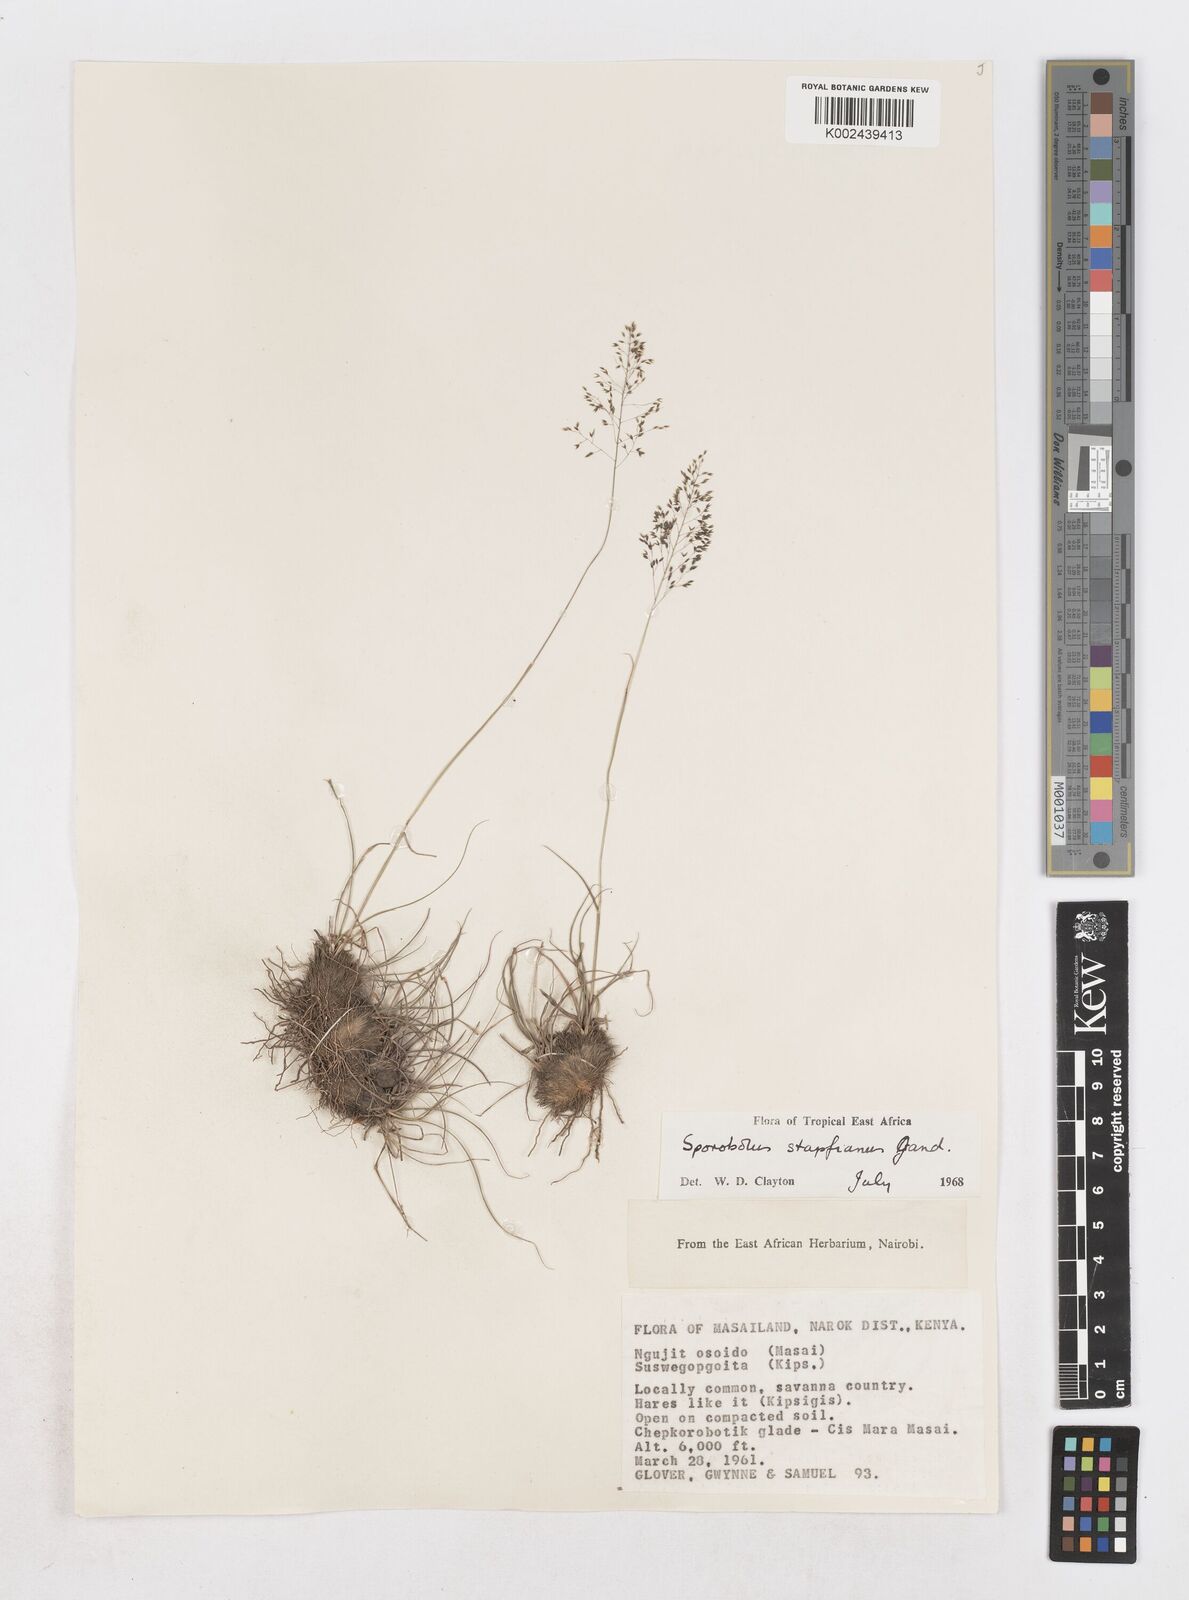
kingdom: Plantae
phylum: Tracheophyta
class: Liliopsida
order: Poales
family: Poaceae
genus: Sporobolus
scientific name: Sporobolus stapfianus
